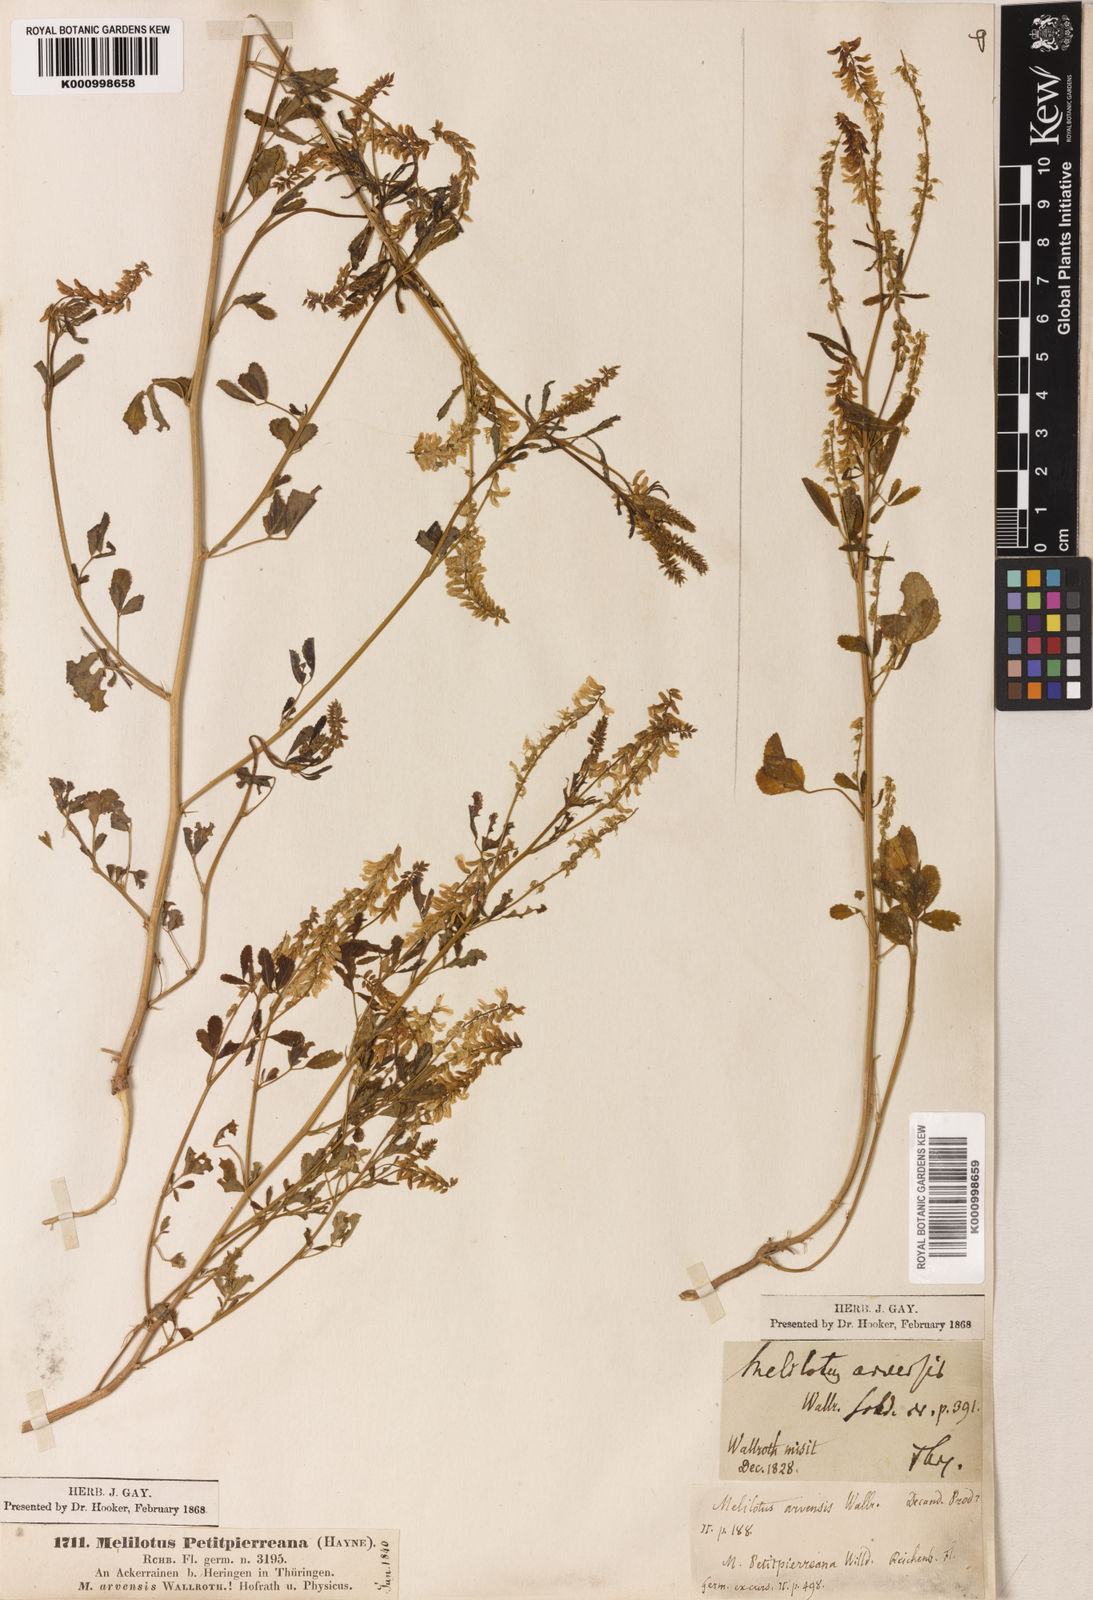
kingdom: Plantae
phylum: Tracheophyta
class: Magnoliopsida
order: Fabales
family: Fabaceae
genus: Melilotus
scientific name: Melilotus officinalis
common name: Sweetclover
